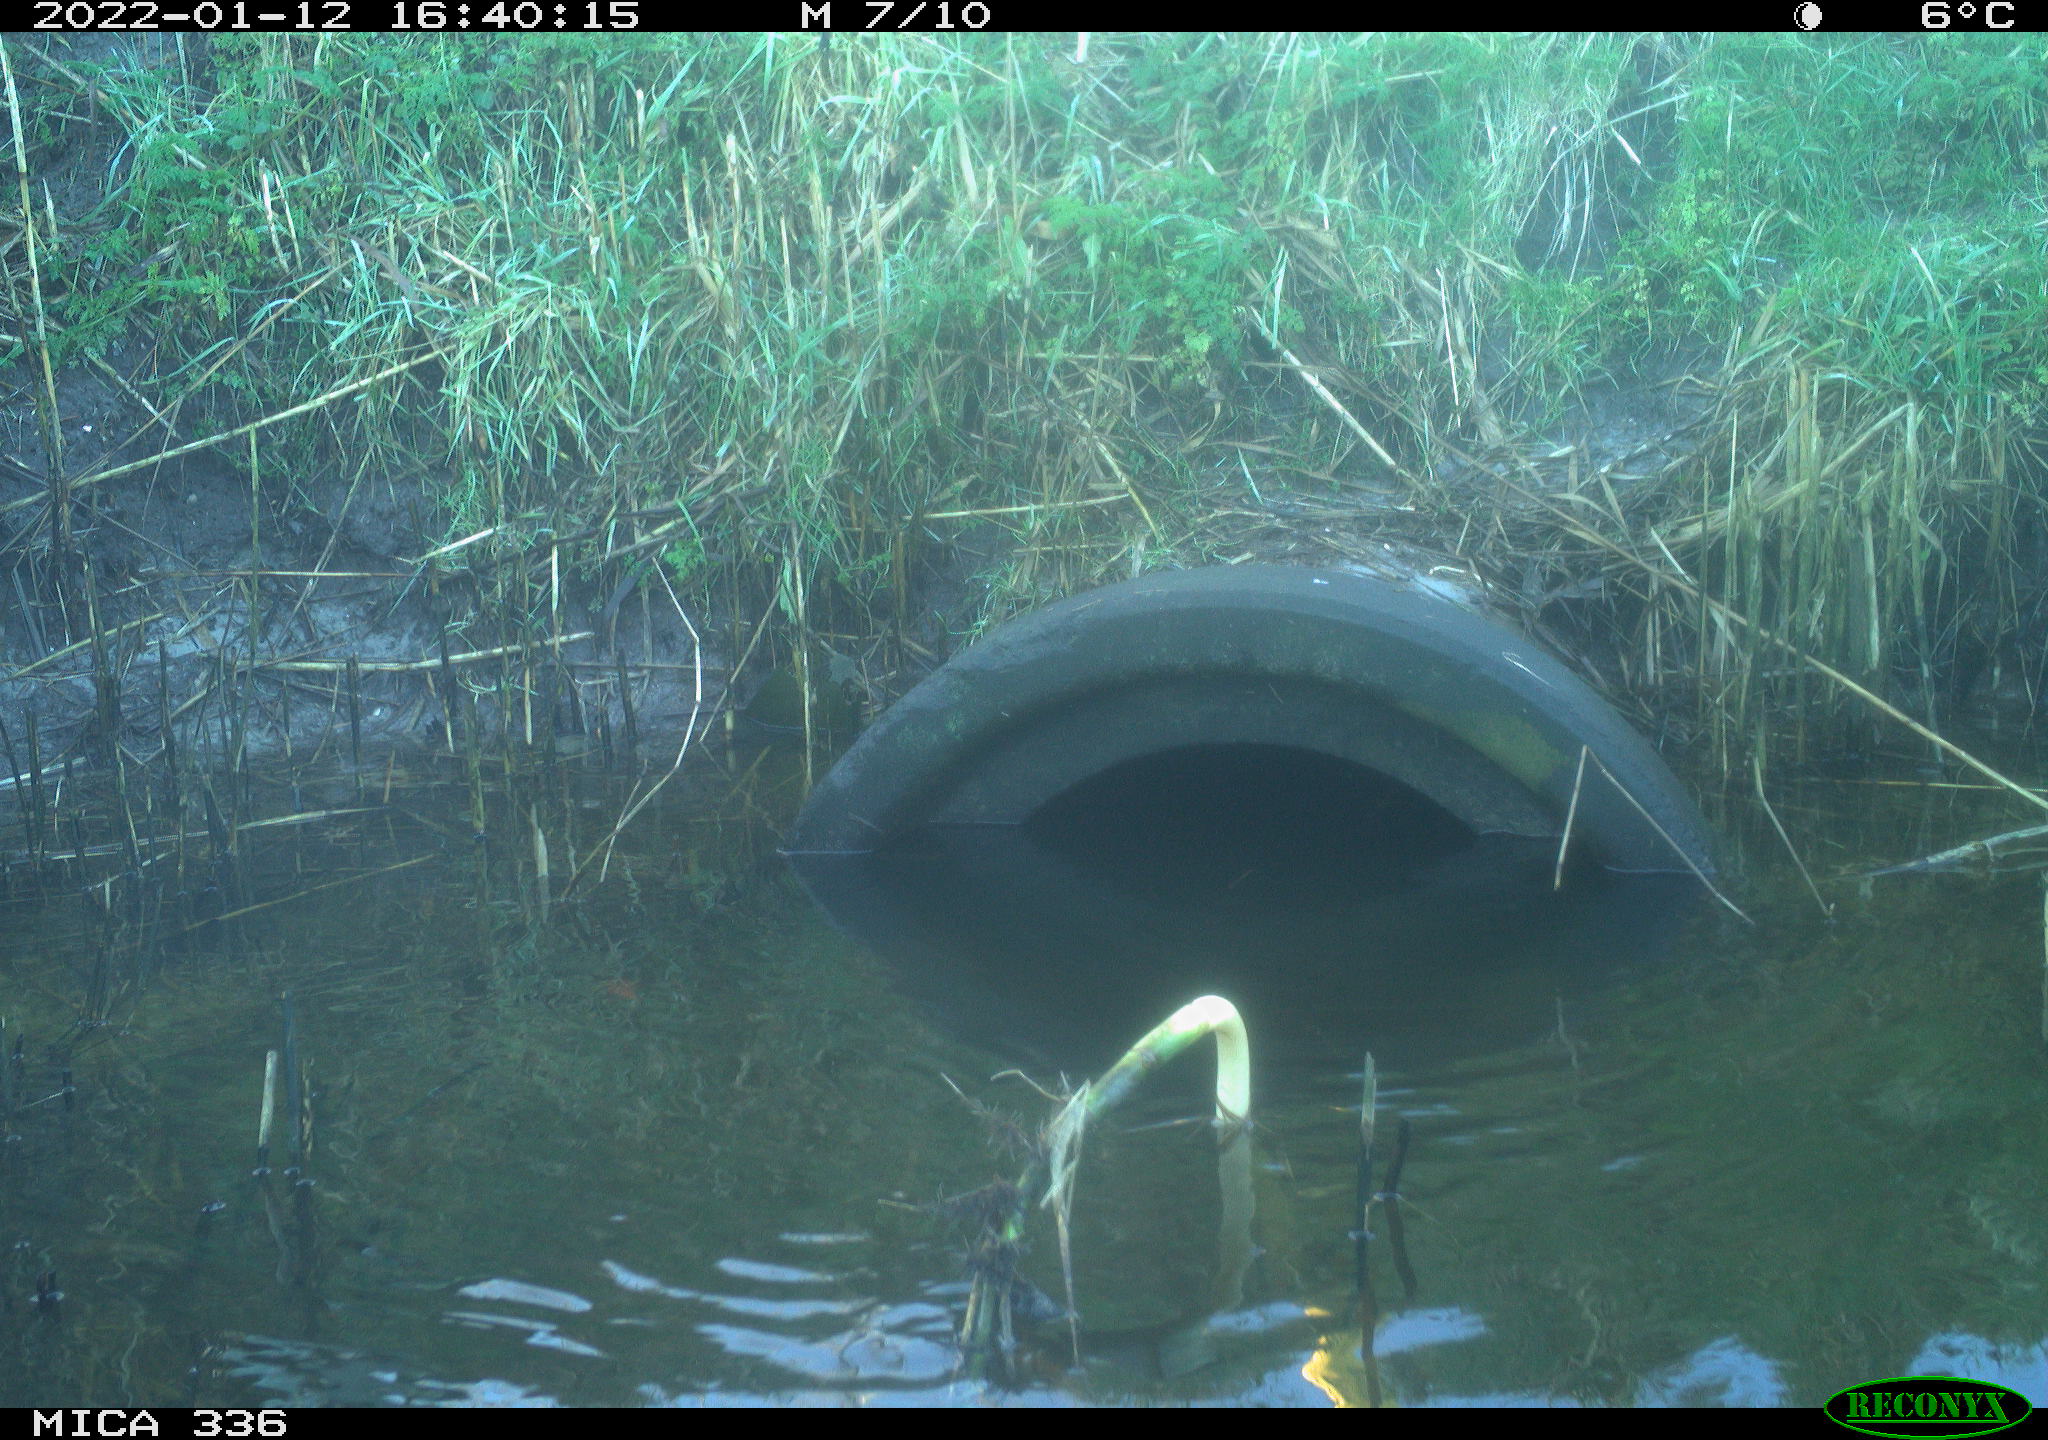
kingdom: Animalia
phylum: Chordata
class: Aves
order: Gruiformes
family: Rallidae
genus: Gallinula
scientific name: Gallinula chloropus
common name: Common moorhen
